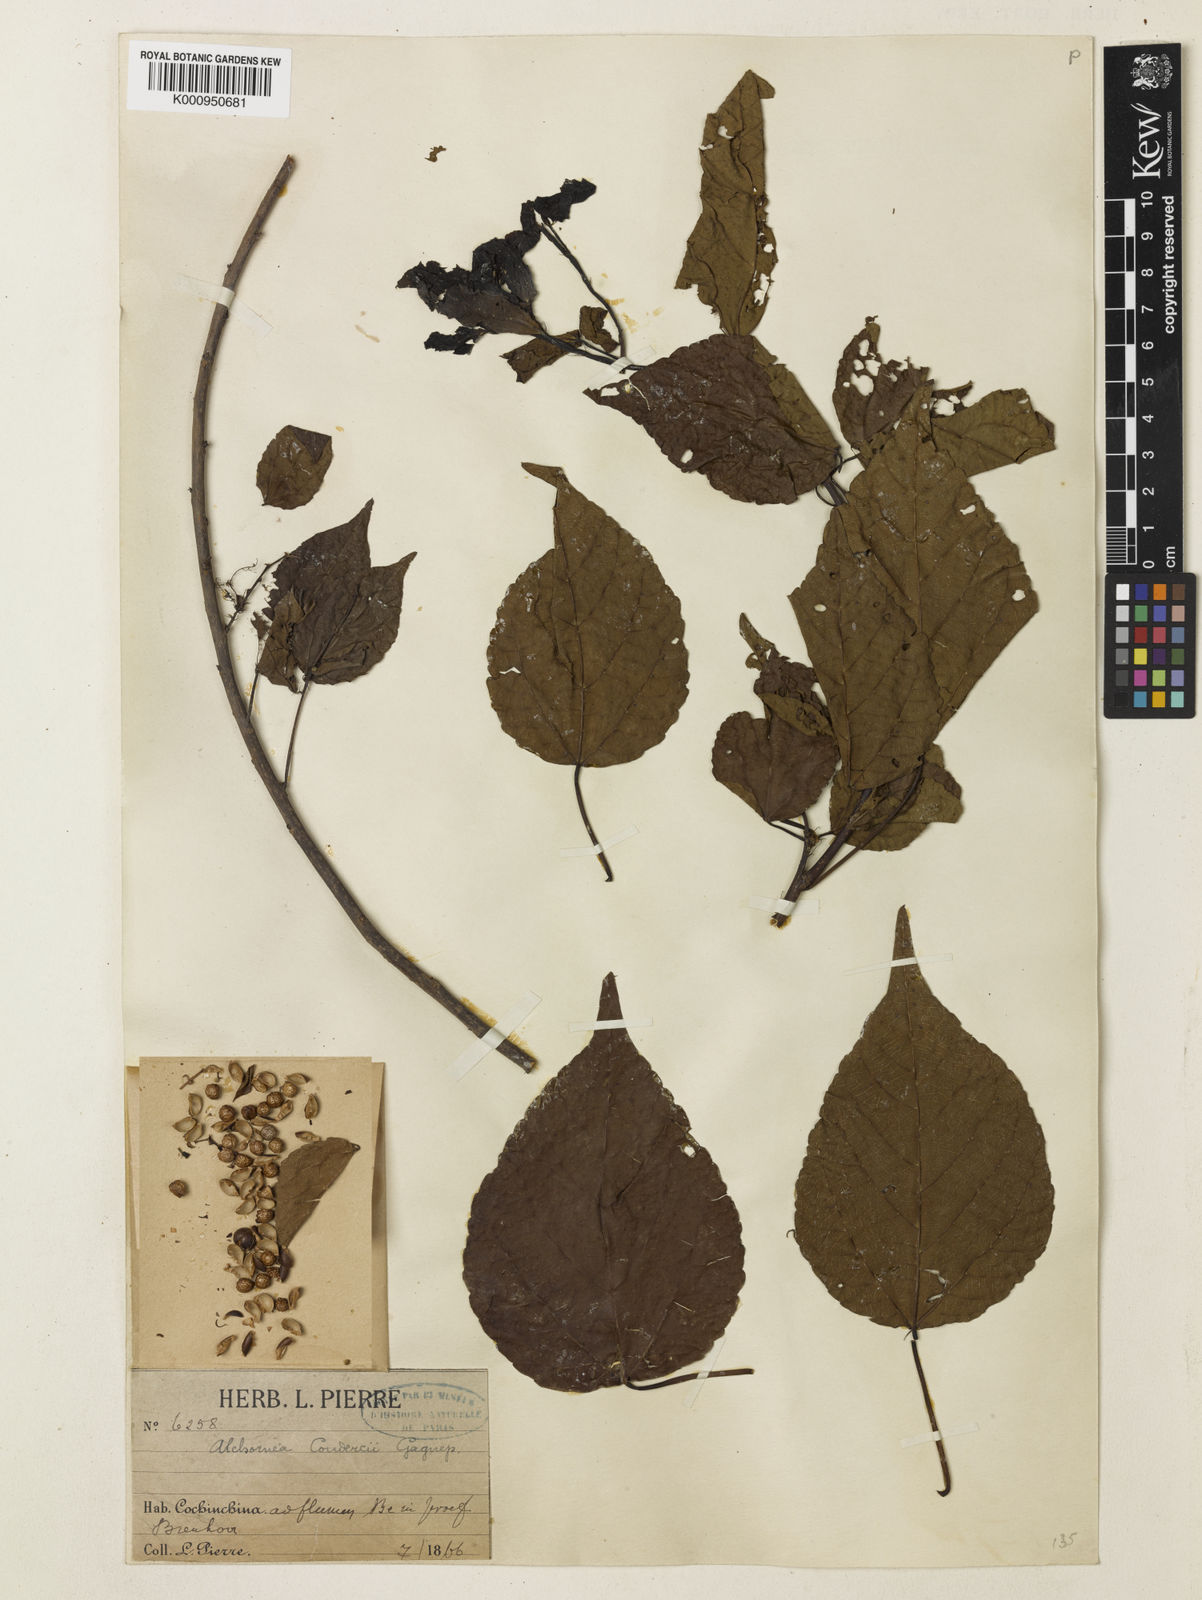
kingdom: Plantae
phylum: Tracheophyta
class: Magnoliopsida
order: Malpighiales
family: Euphorbiaceae
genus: Alchornea
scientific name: Alchornea
